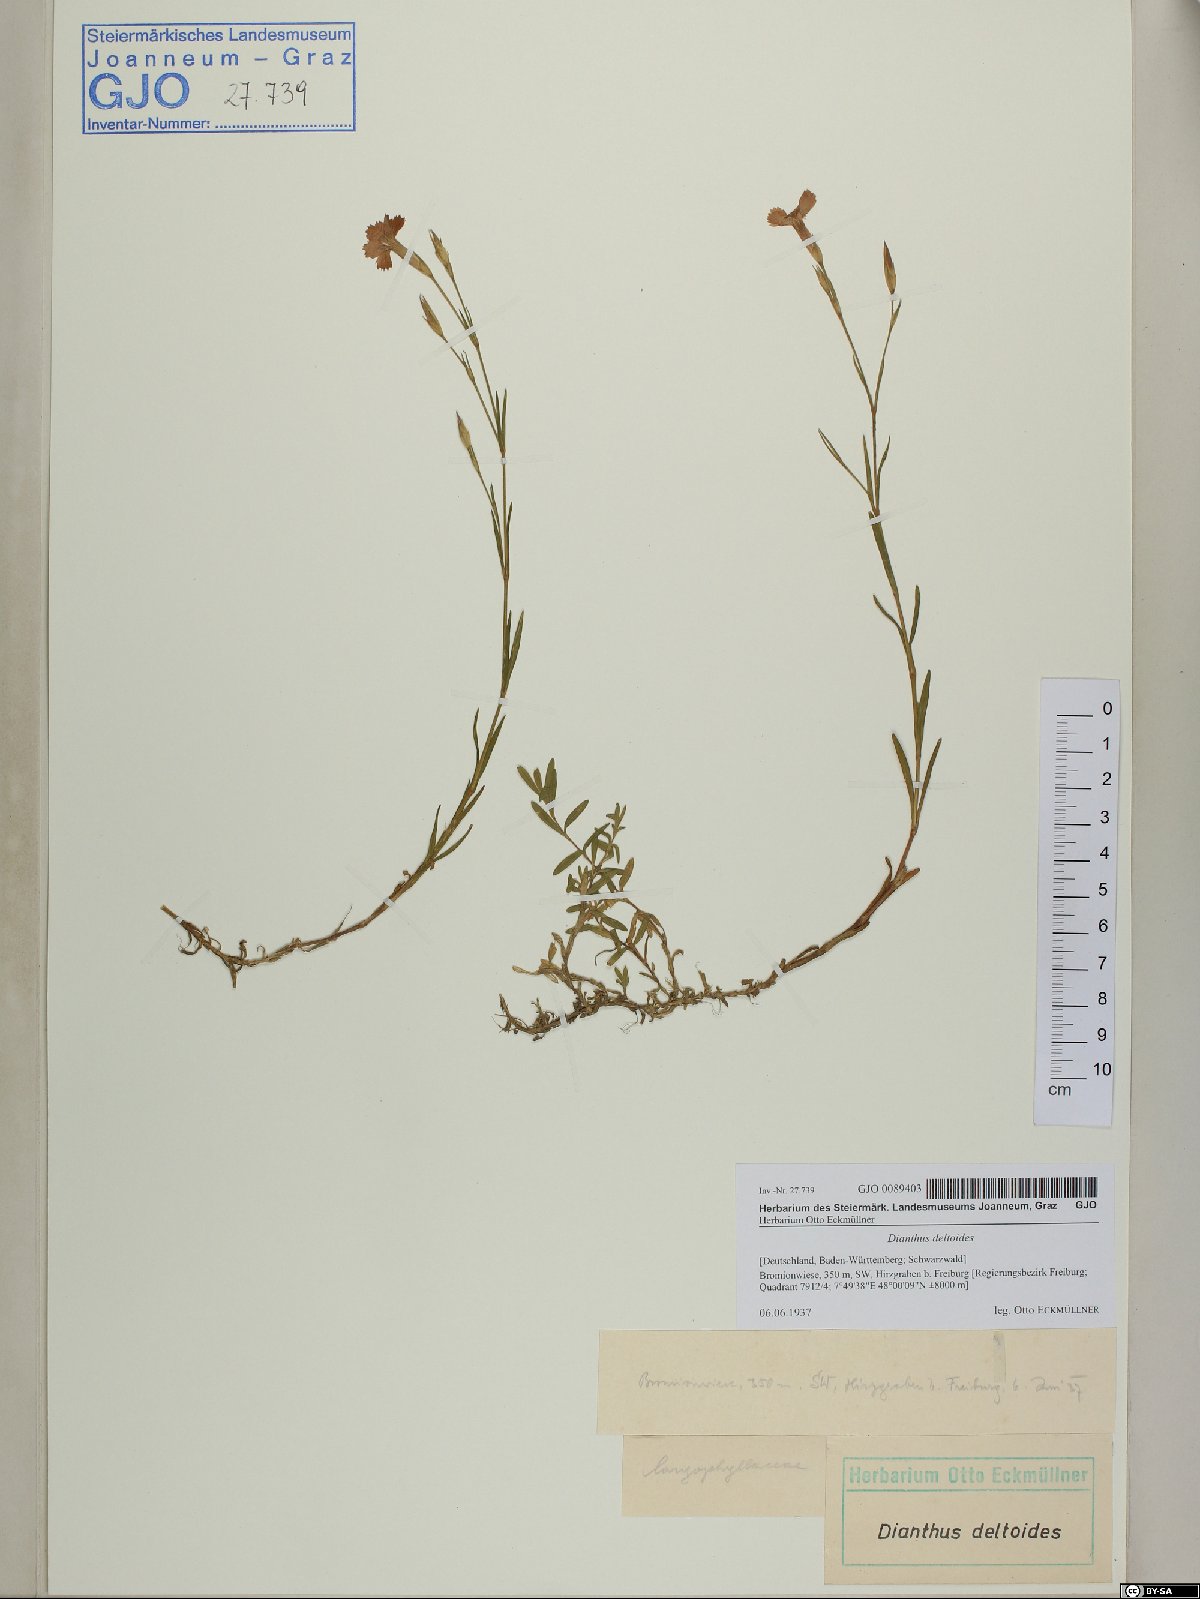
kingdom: Plantae
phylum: Tracheophyta
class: Magnoliopsida
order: Caryophyllales
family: Caryophyllaceae
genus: Dianthus
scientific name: Dianthus deltoides
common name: Maiden pink
